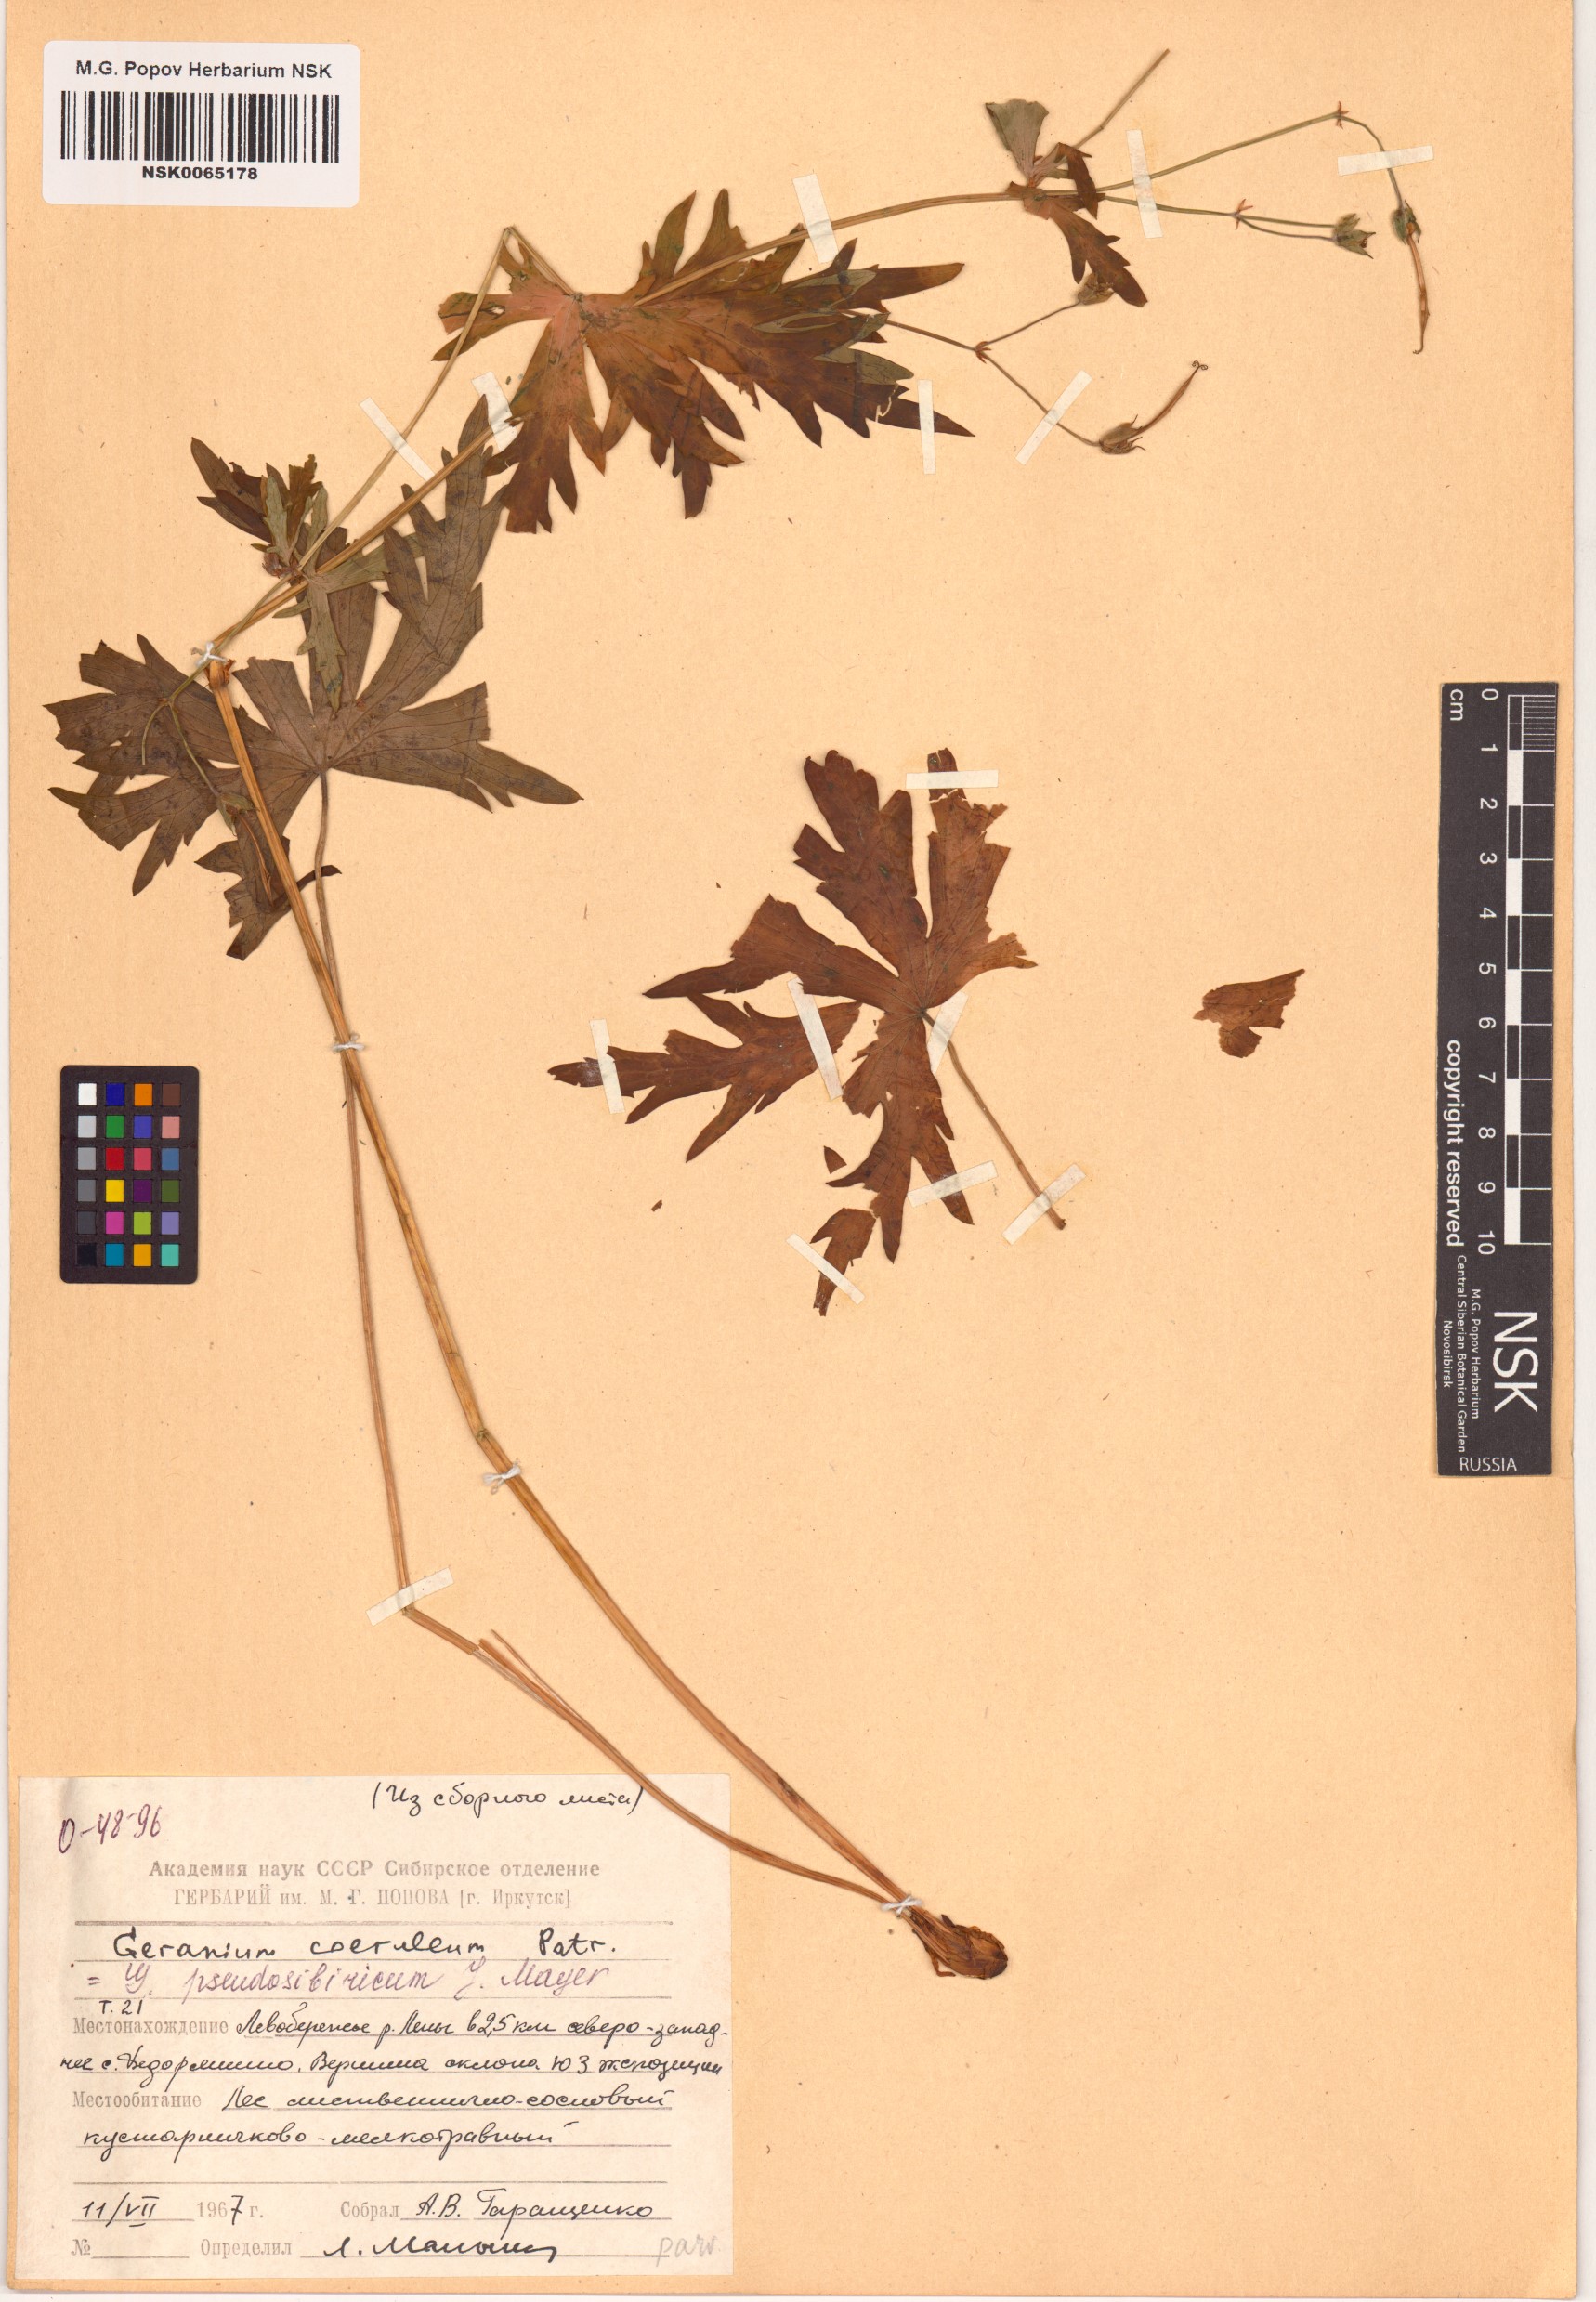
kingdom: Plantae
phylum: Tracheophyta
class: Magnoliopsida
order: Geraniales
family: Geraniaceae
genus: Geranium
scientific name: Geranium pseudosibiricum
